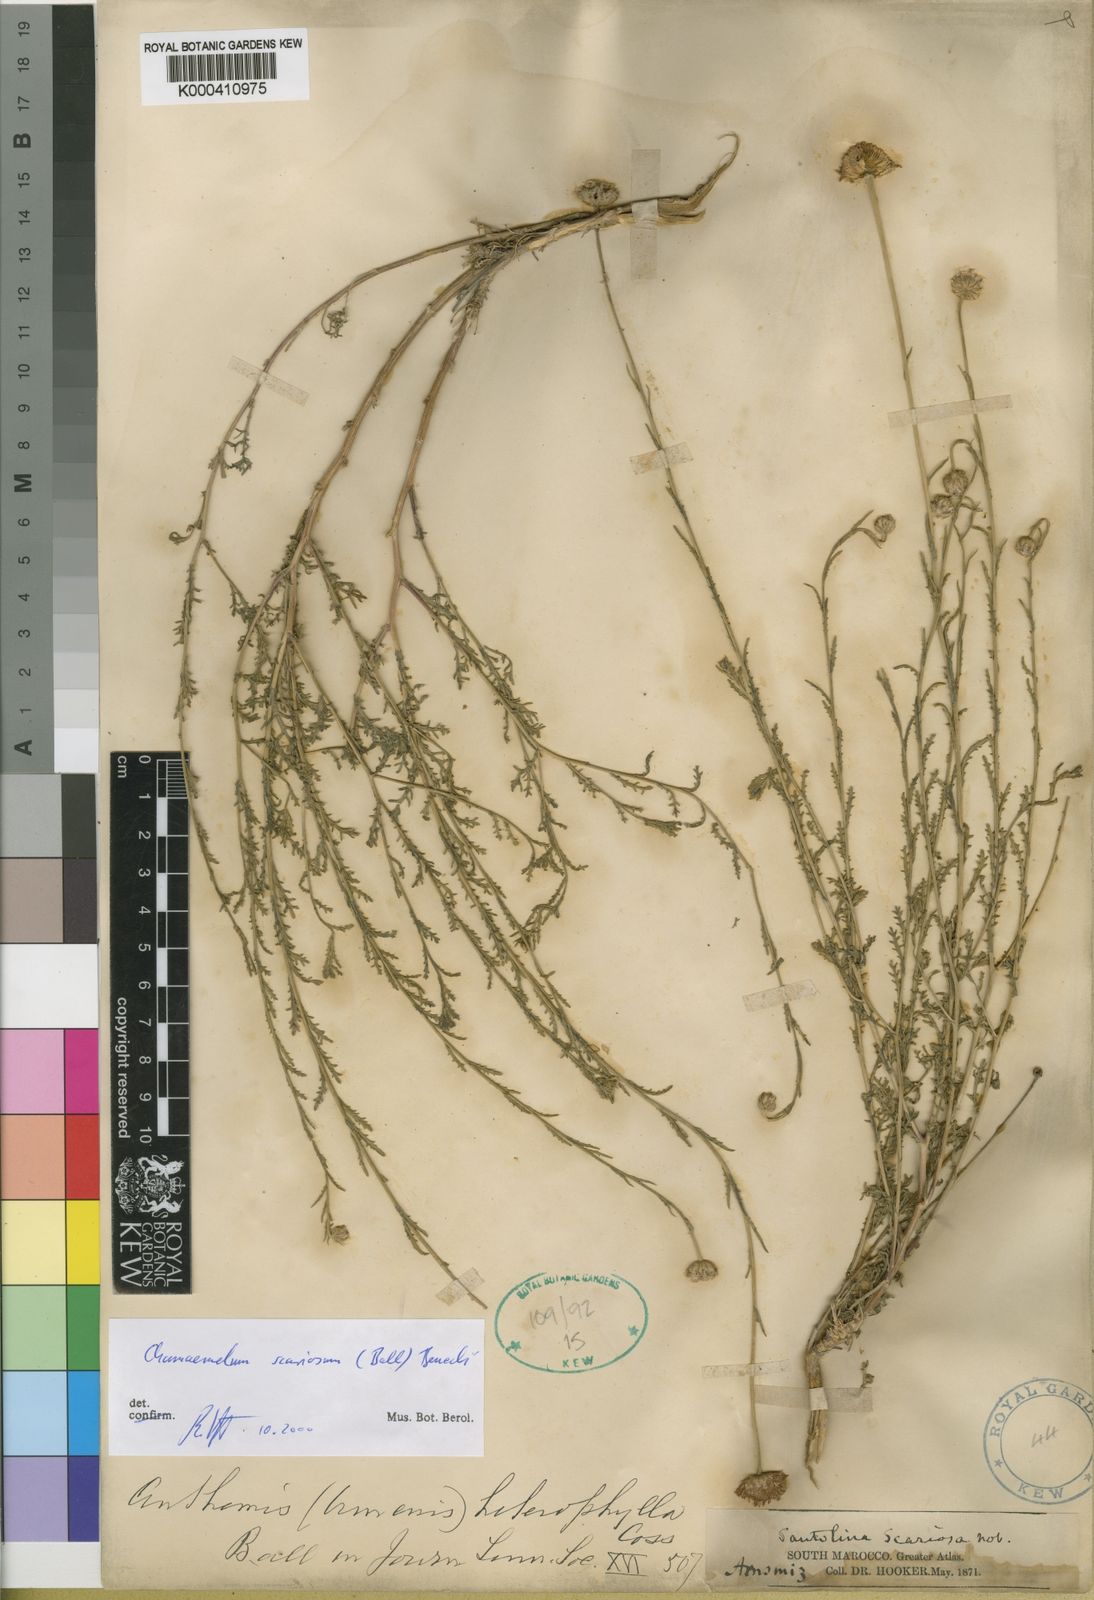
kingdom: Plantae
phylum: Tracheophyta
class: Magnoliopsida
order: Asterales
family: Asteraceae
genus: Chamaemelum
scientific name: Chamaemelum
